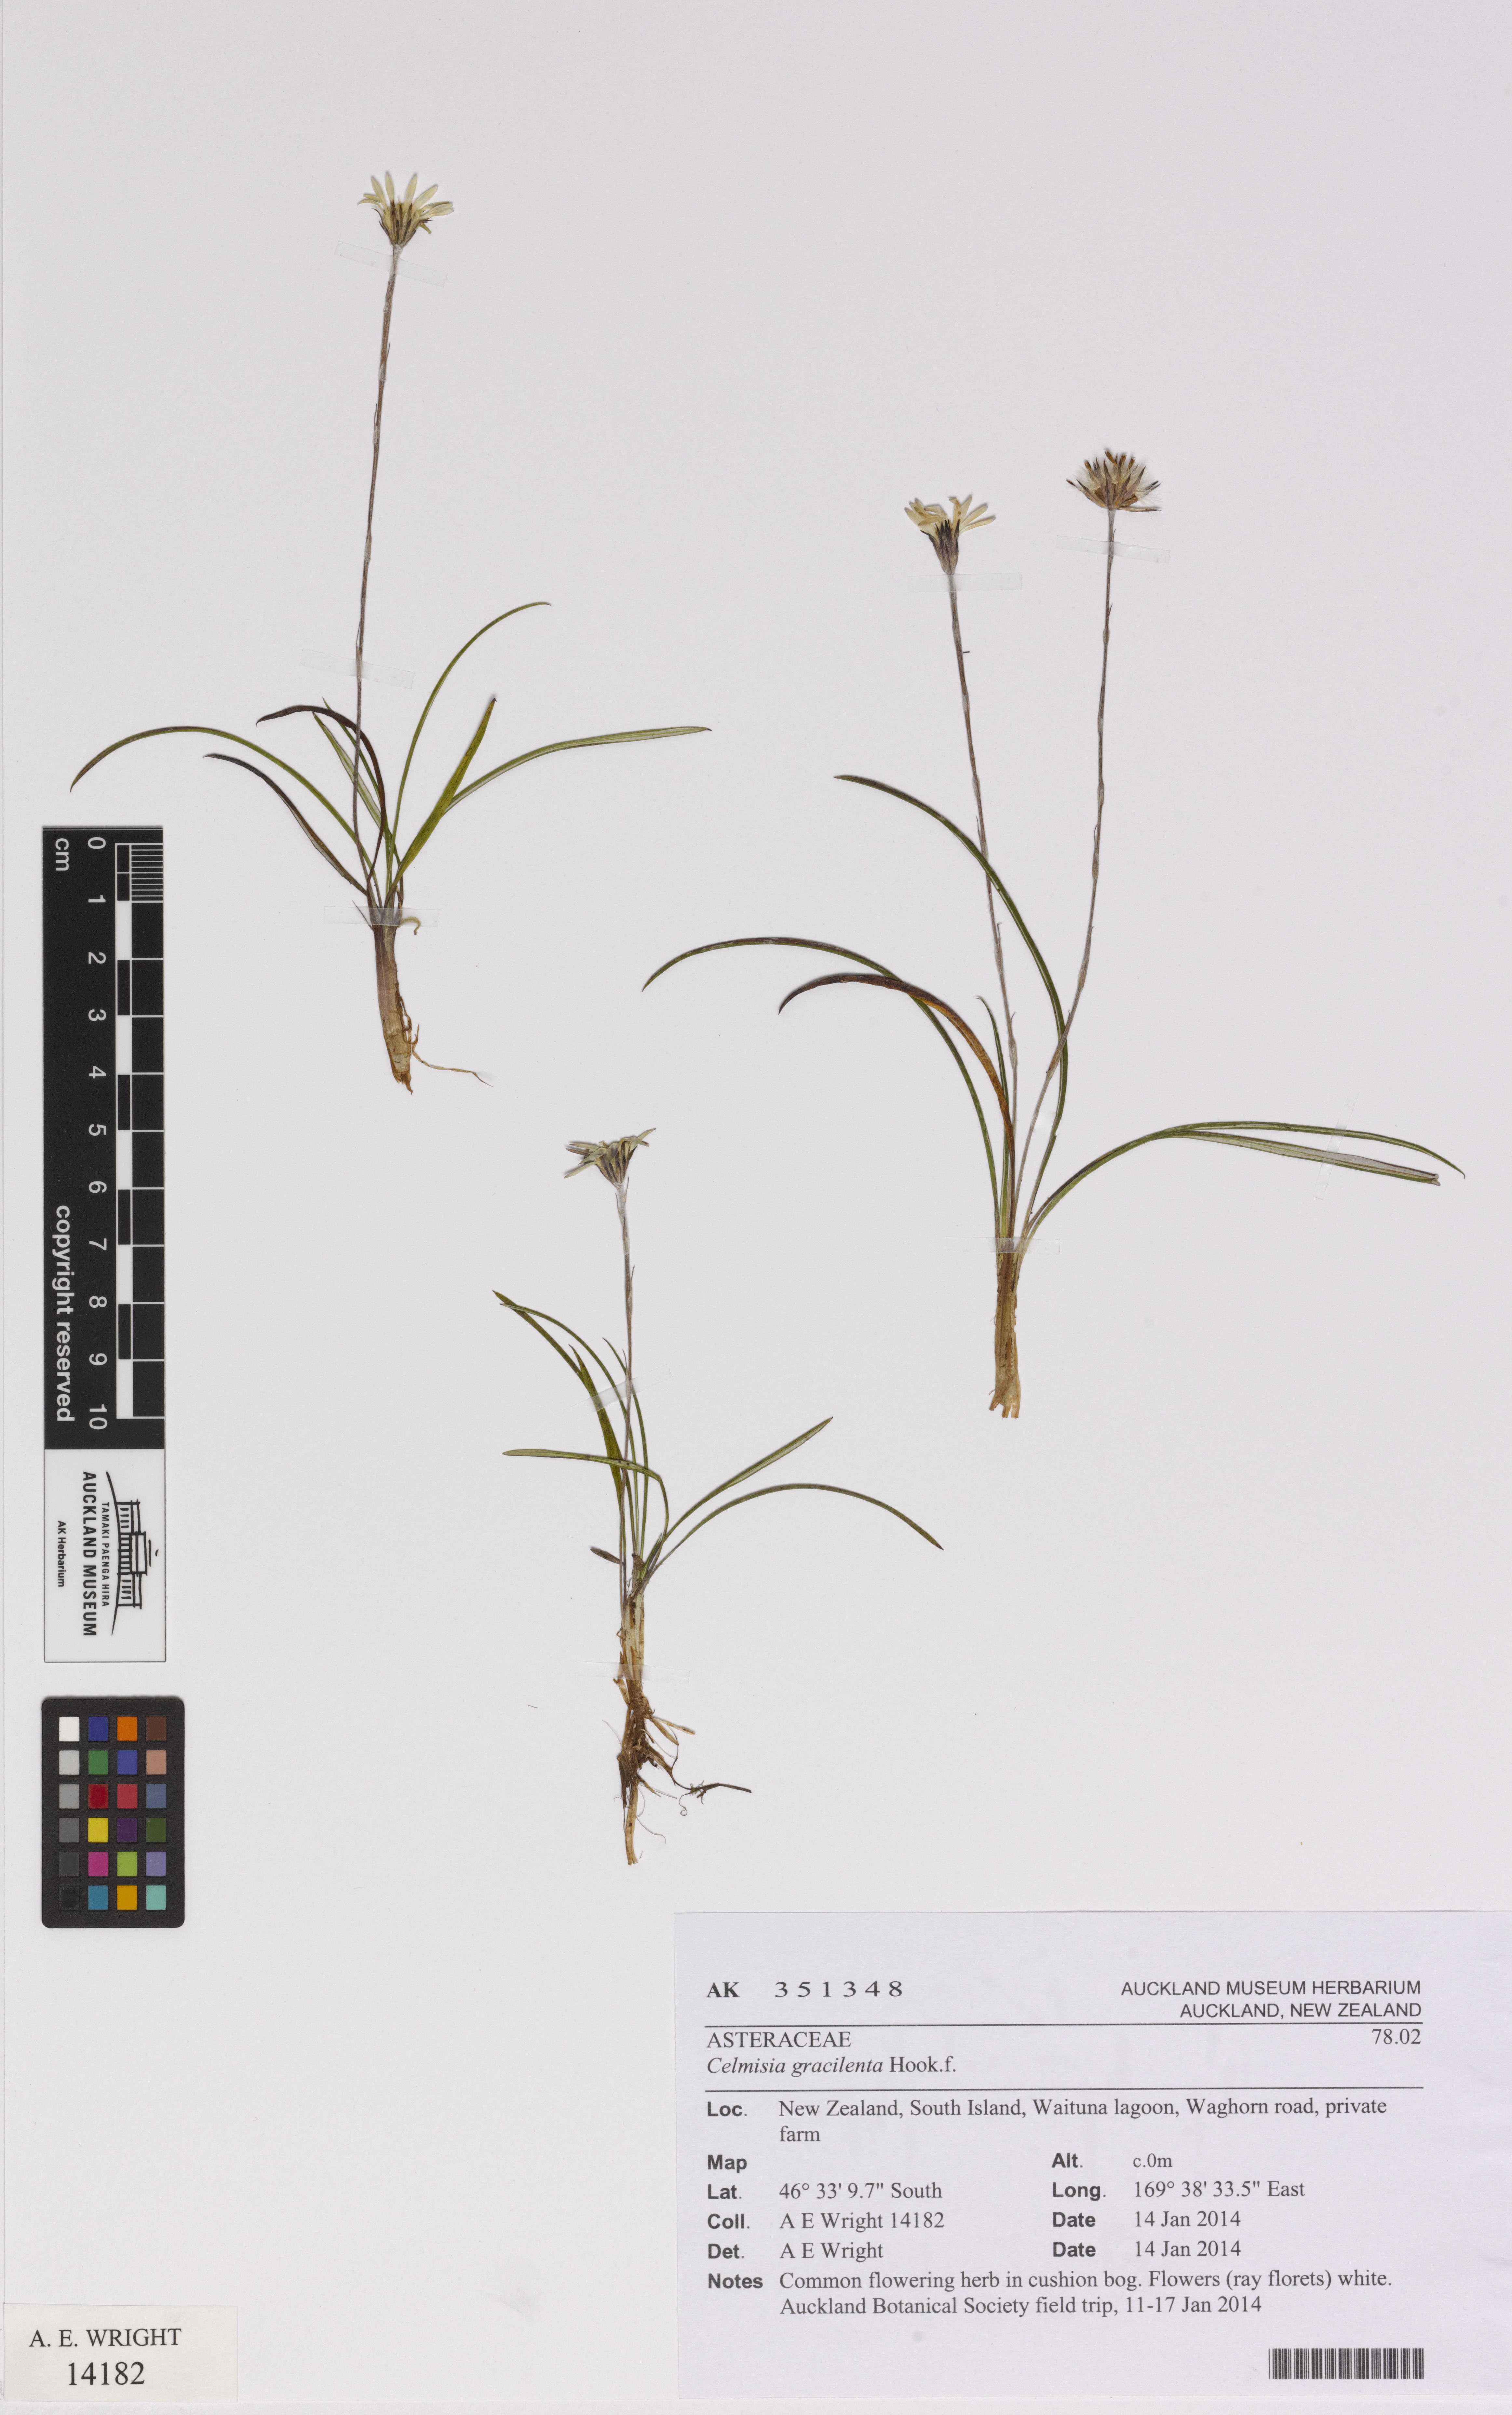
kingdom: Plantae
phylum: Tracheophyta
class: Magnoliopsida
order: Asterales
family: Asteraceae
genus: Celmisia
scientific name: Celmisia gracilenta
